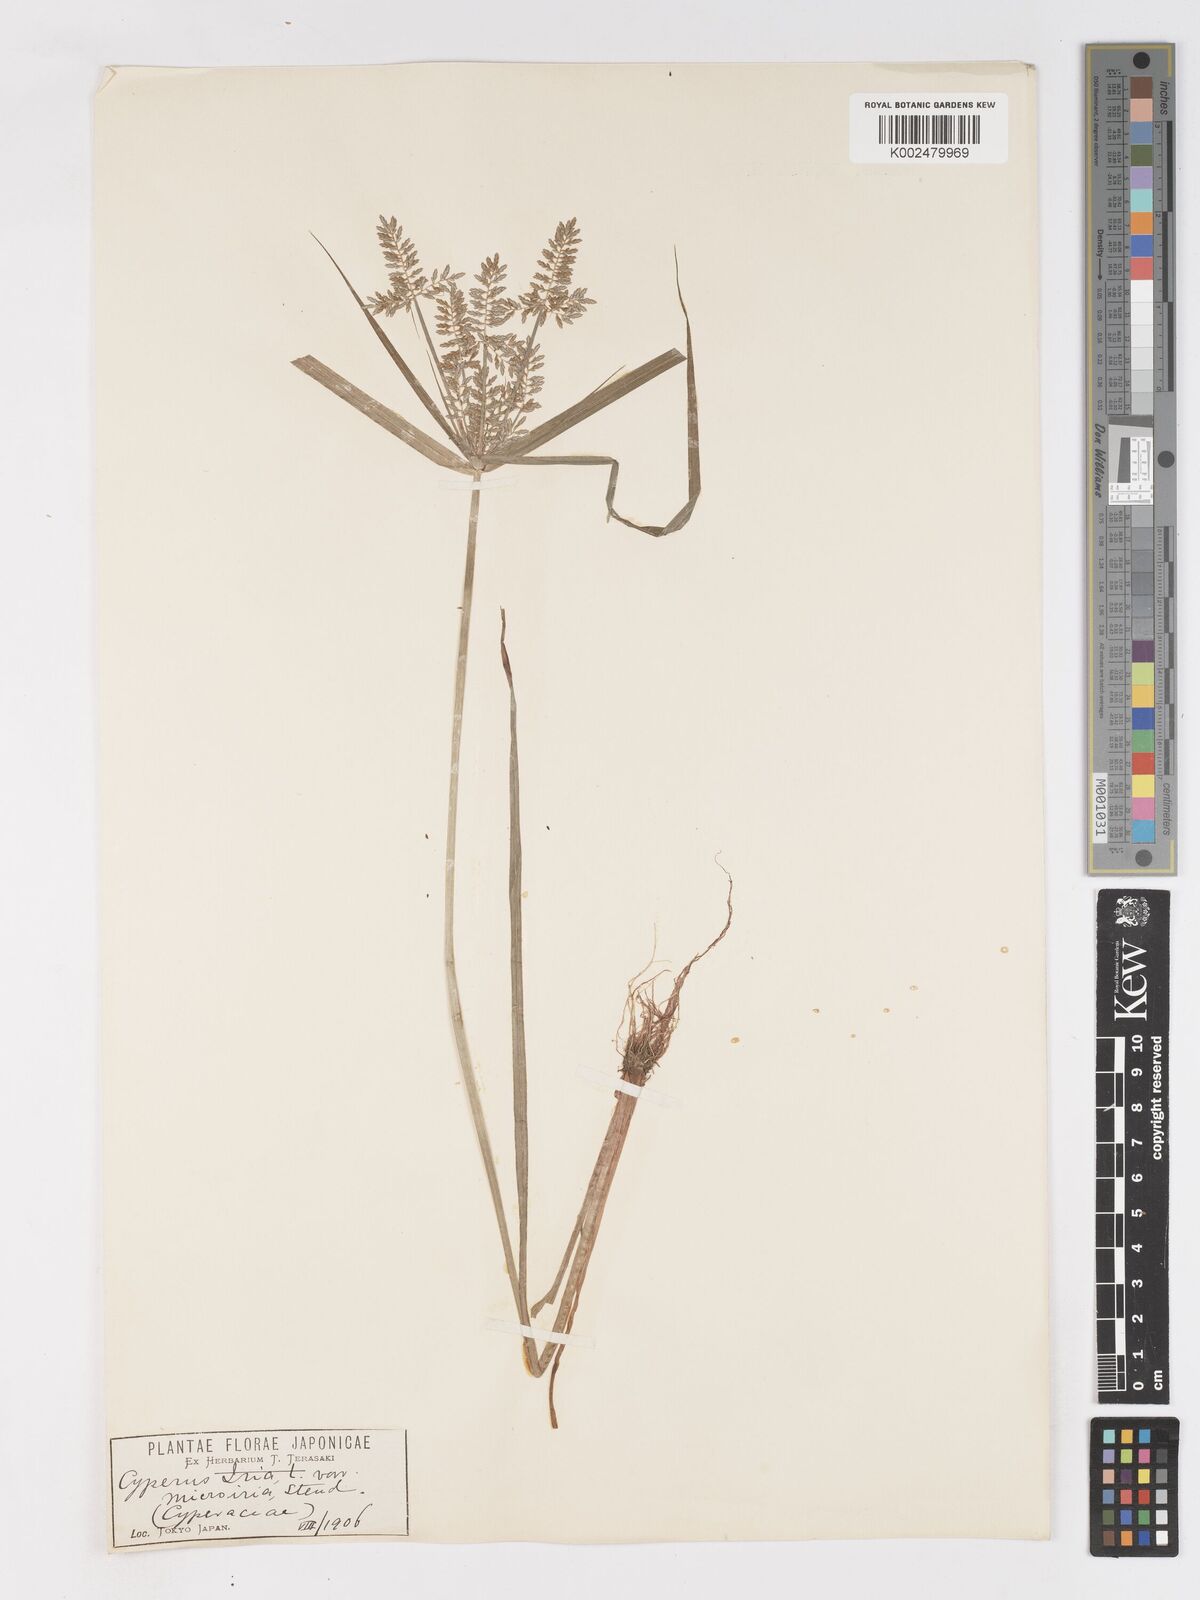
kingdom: Plantae
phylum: Tracheophyta
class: Liliopsida
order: Poales
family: Cyperaceae
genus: Cyperus
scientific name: Cyperus microiria
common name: Asian flatsedge
